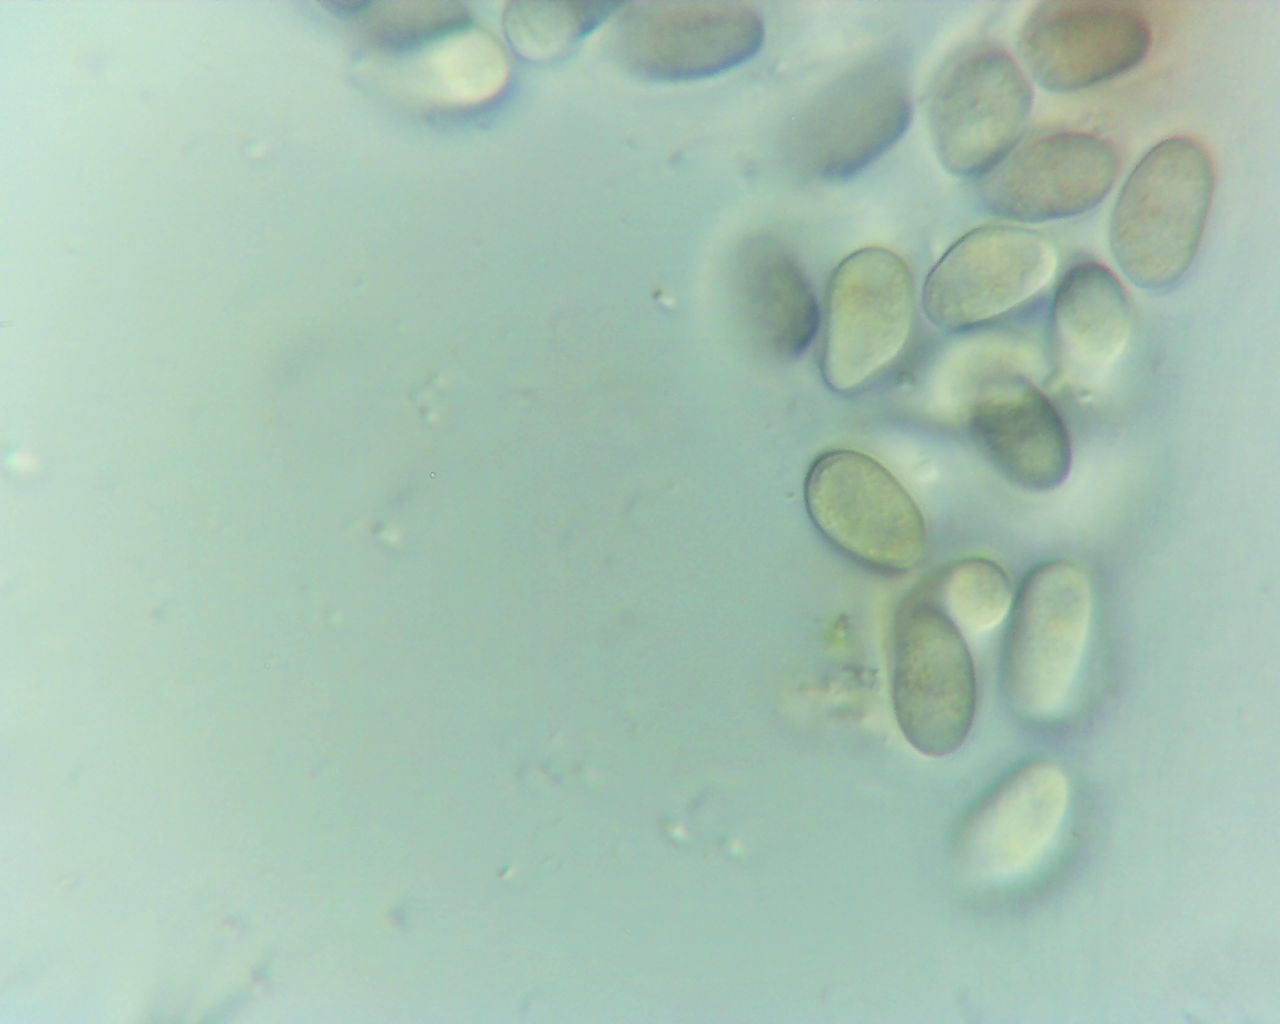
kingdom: Fungi
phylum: Mucoromycota
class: Mucoromycetes
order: Mucorales
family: Pilobolaceae
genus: Pilobolus
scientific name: Pilobolus kleinii
